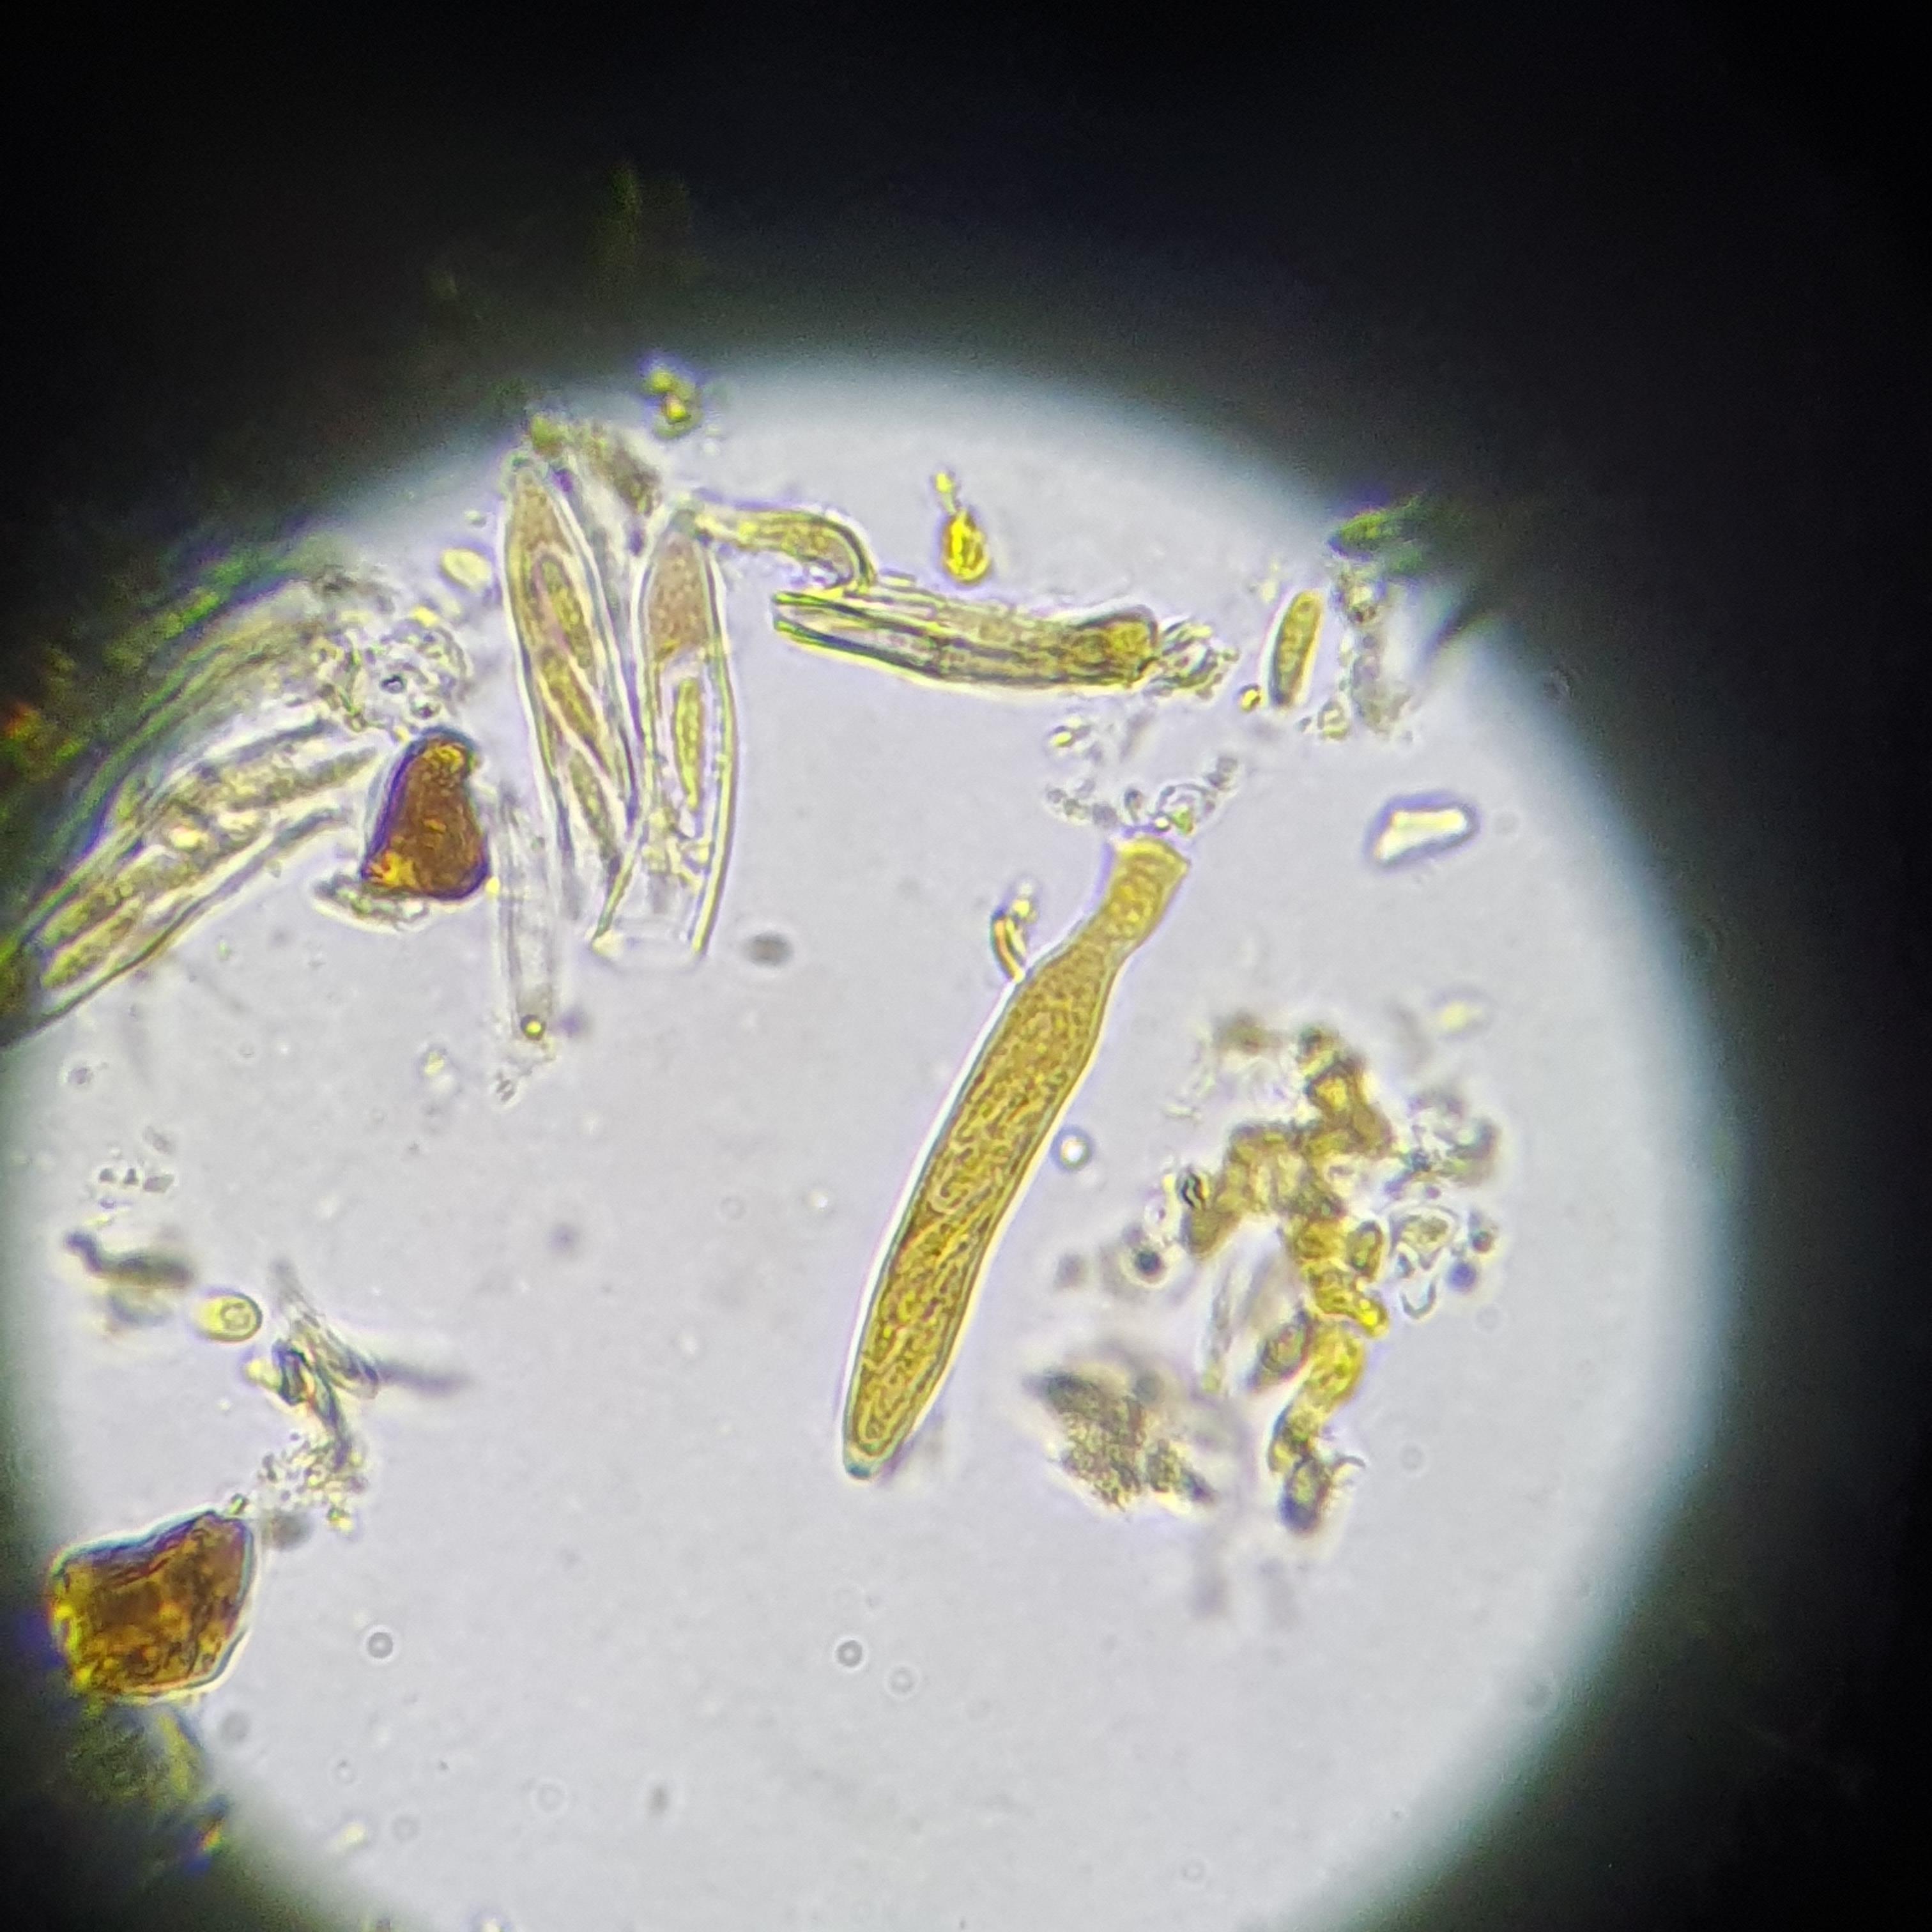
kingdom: Fungi
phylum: Ascomycota
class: Leotiomycetes
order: Helotiales
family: Dermateaceae
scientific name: Dermateaceae
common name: gråskivefamilien
